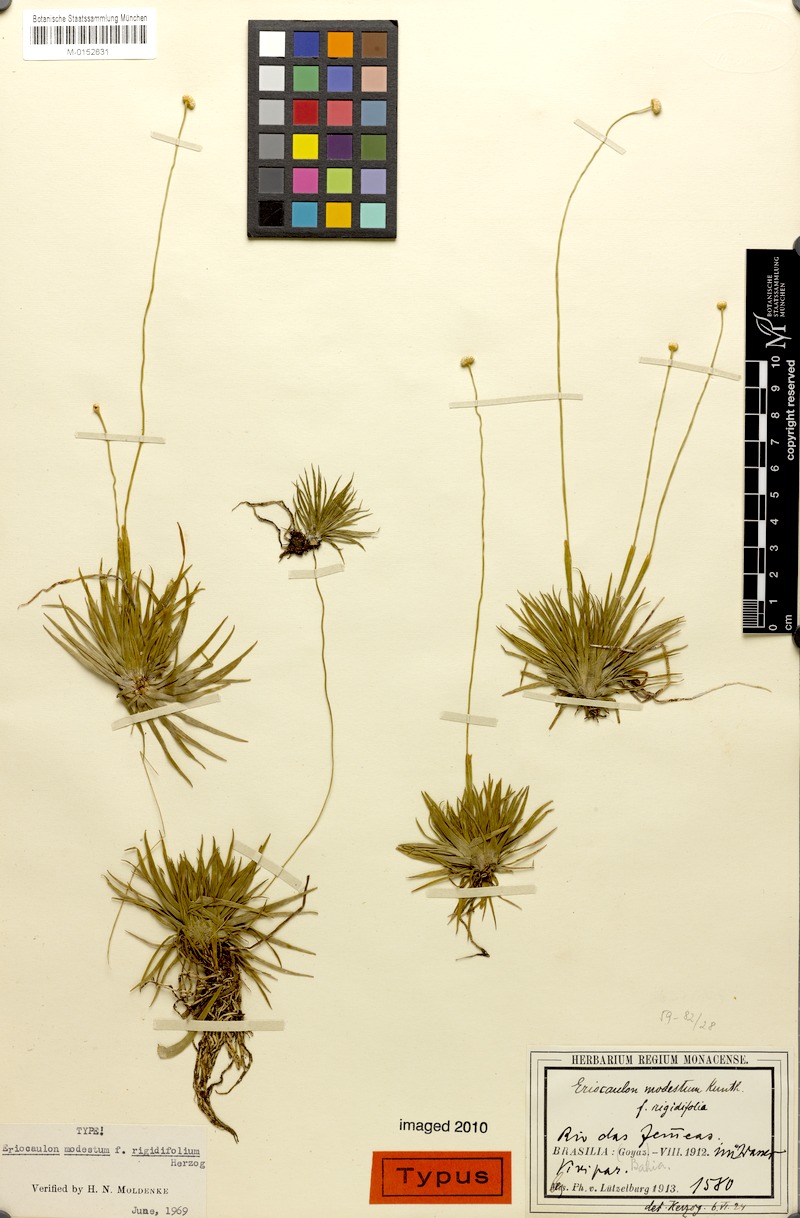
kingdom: Plantae
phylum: Tracheophyta
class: Liliopsida
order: Poales
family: Eriocaulaceae
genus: Eriocaulon
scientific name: Eriocaulon modestum
